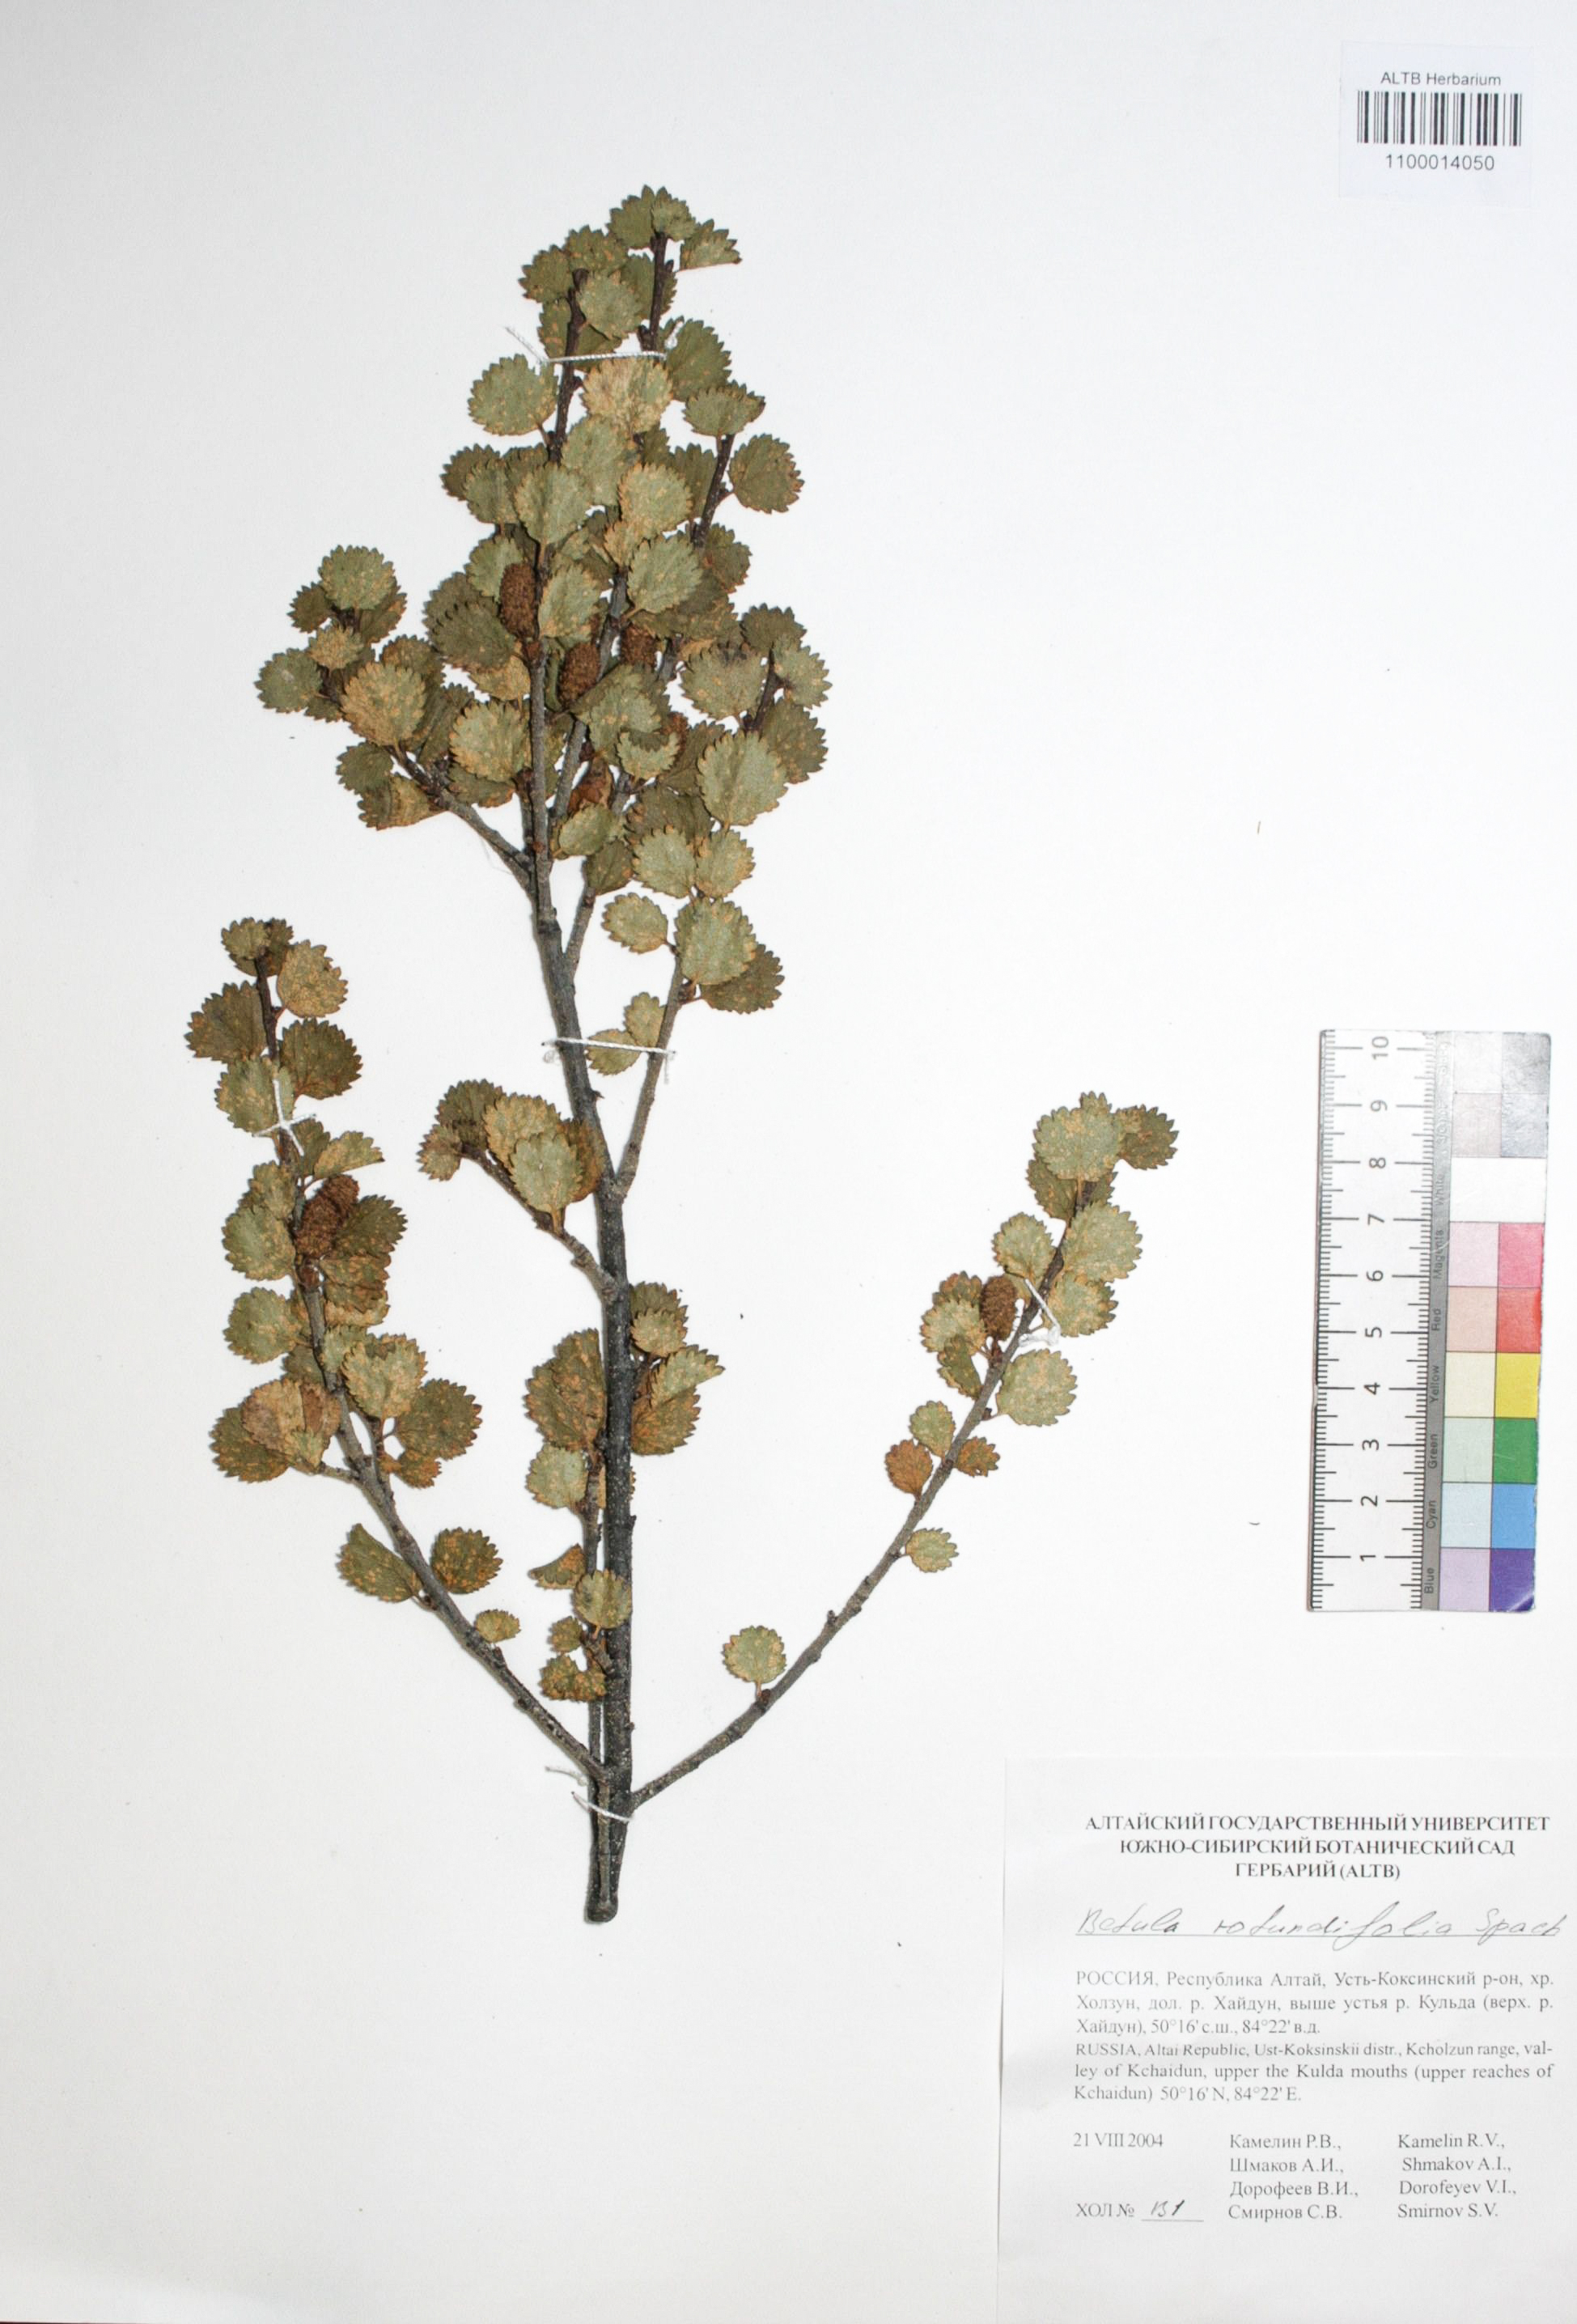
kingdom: Plantae
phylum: Tracheophyta
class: Magnoliopsida
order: Fagales
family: Betulaceae
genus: Betula
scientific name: Betula glandulosa
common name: Dwarf birch
